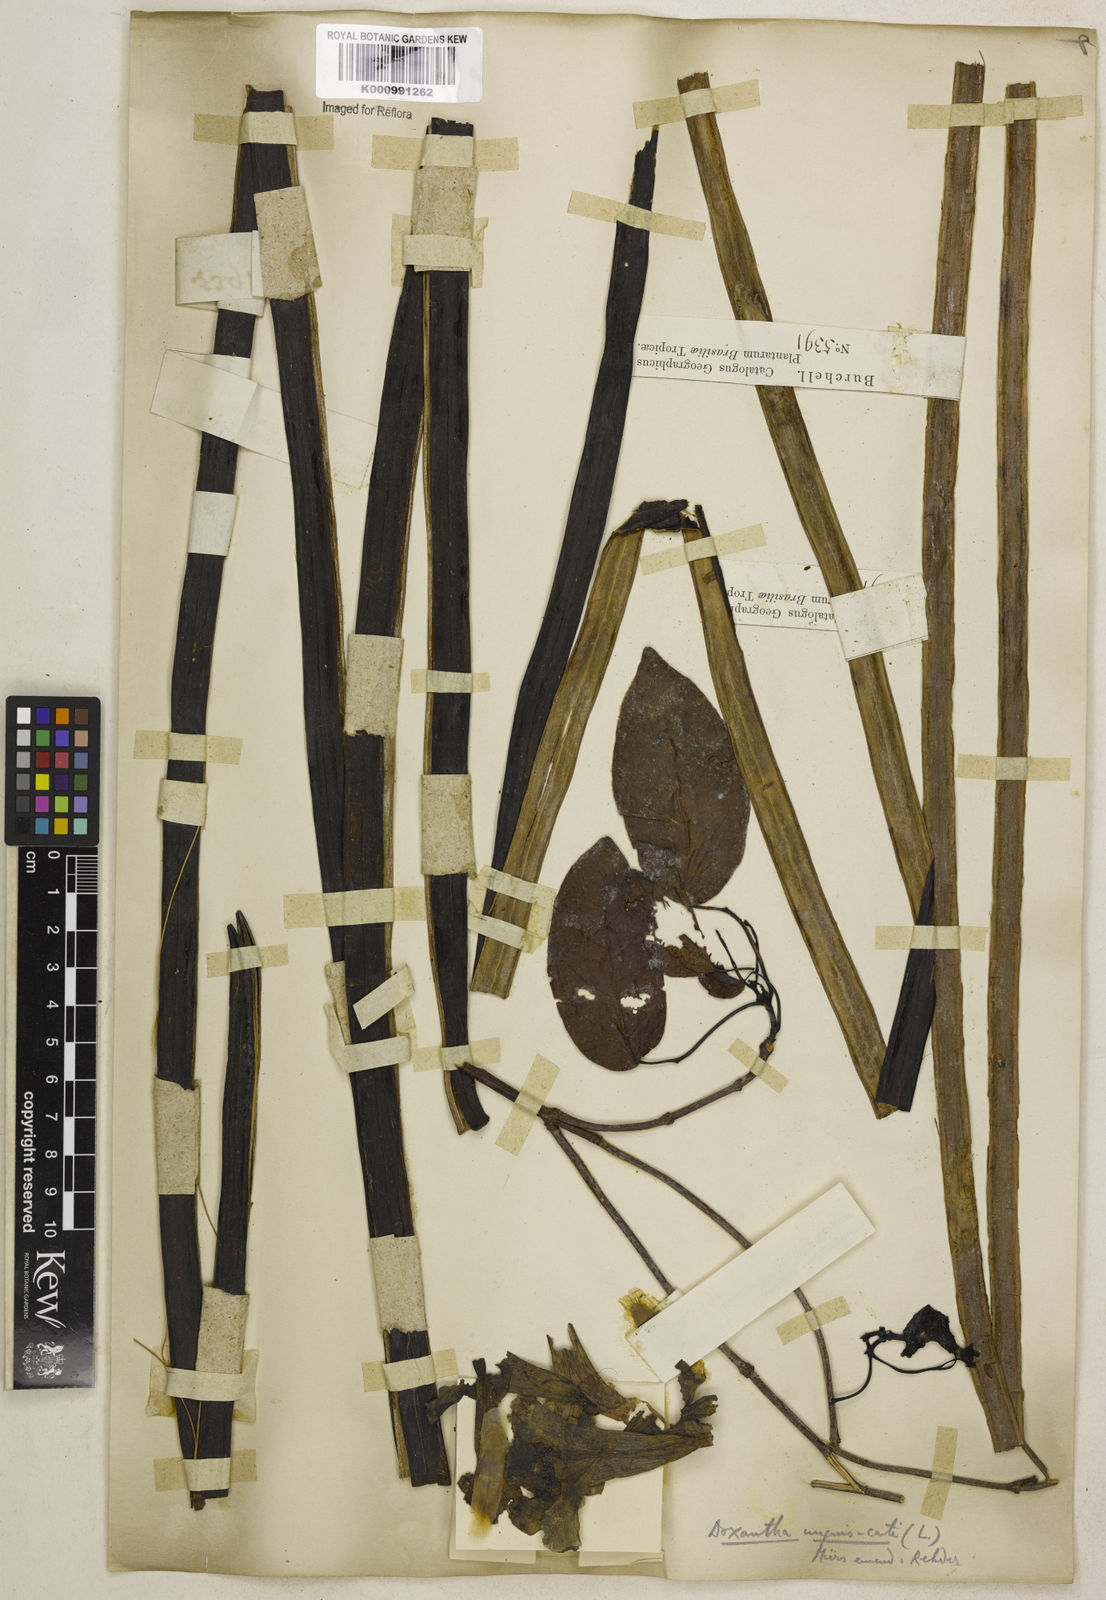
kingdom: Plantae
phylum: Tracheophyta
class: Magnoliopsida
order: Lamiales
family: Bignoniaceae
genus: Dolichandra
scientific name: Dolichandra unguis-cati
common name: Catclaw vine
